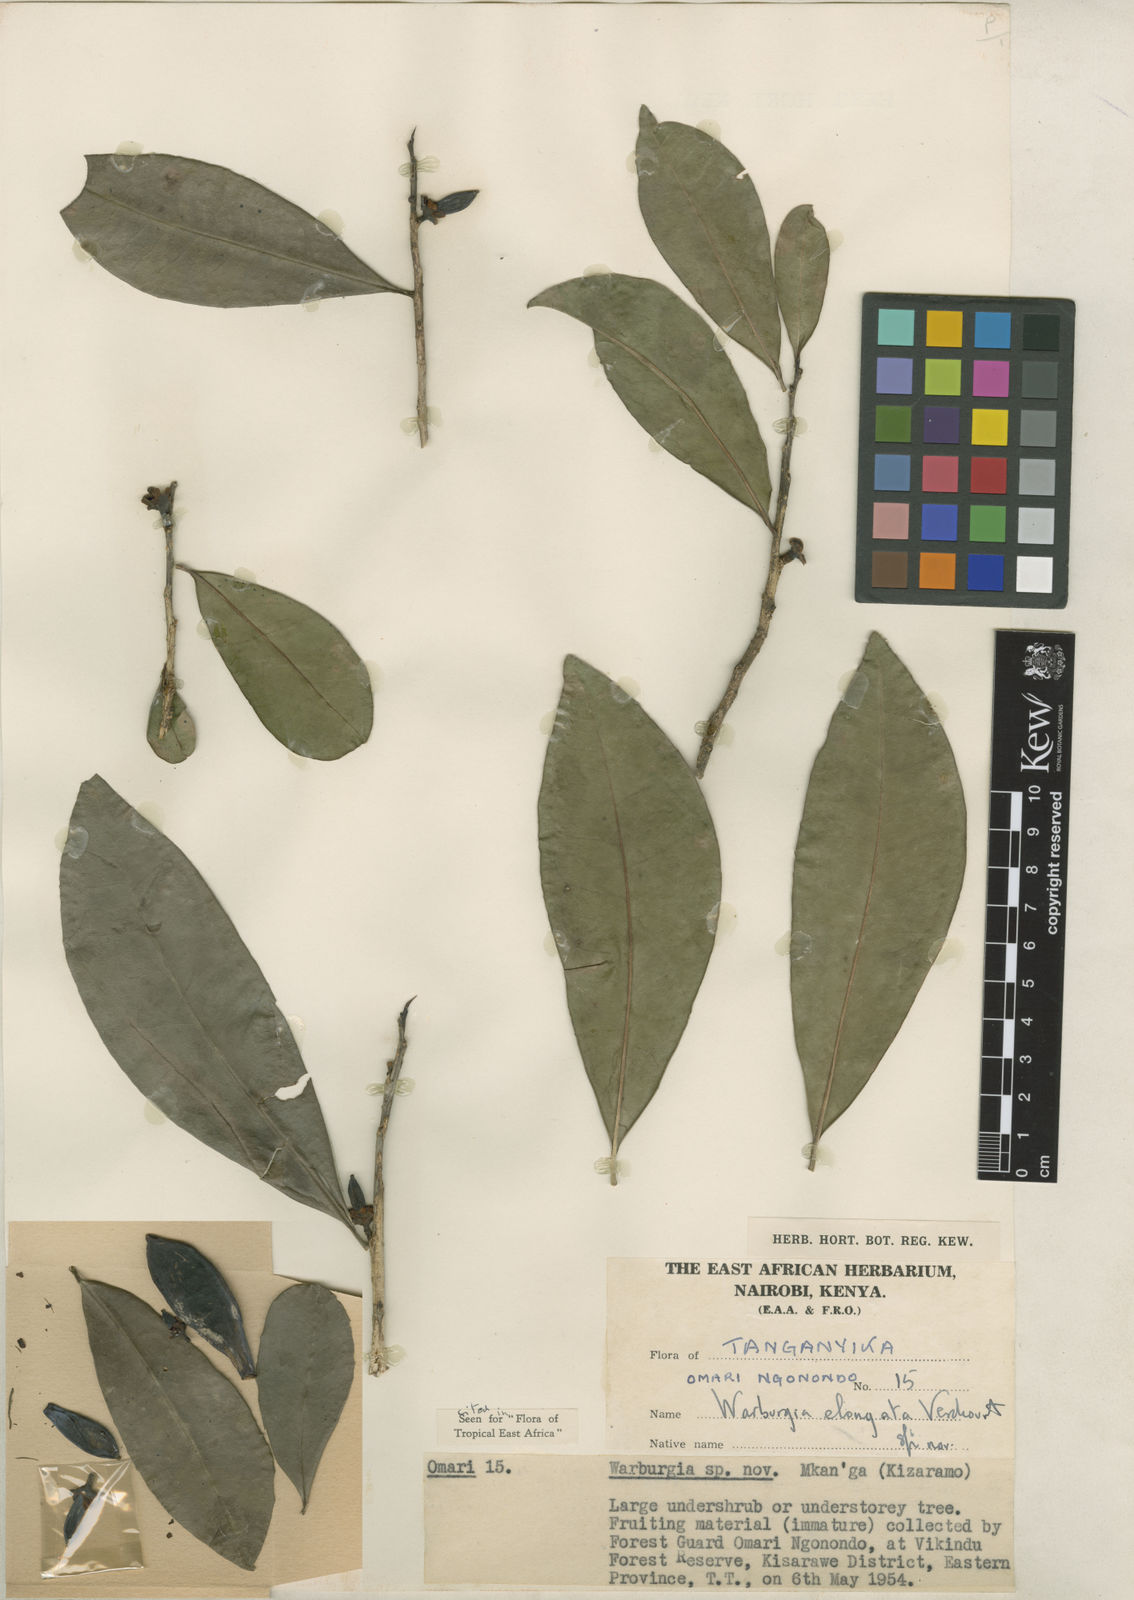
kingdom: Plantae
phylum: Tracheophyta
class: Magnoliopsida
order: Canellales
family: Canellaceae
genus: Warburgia
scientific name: Warburgia elongata
